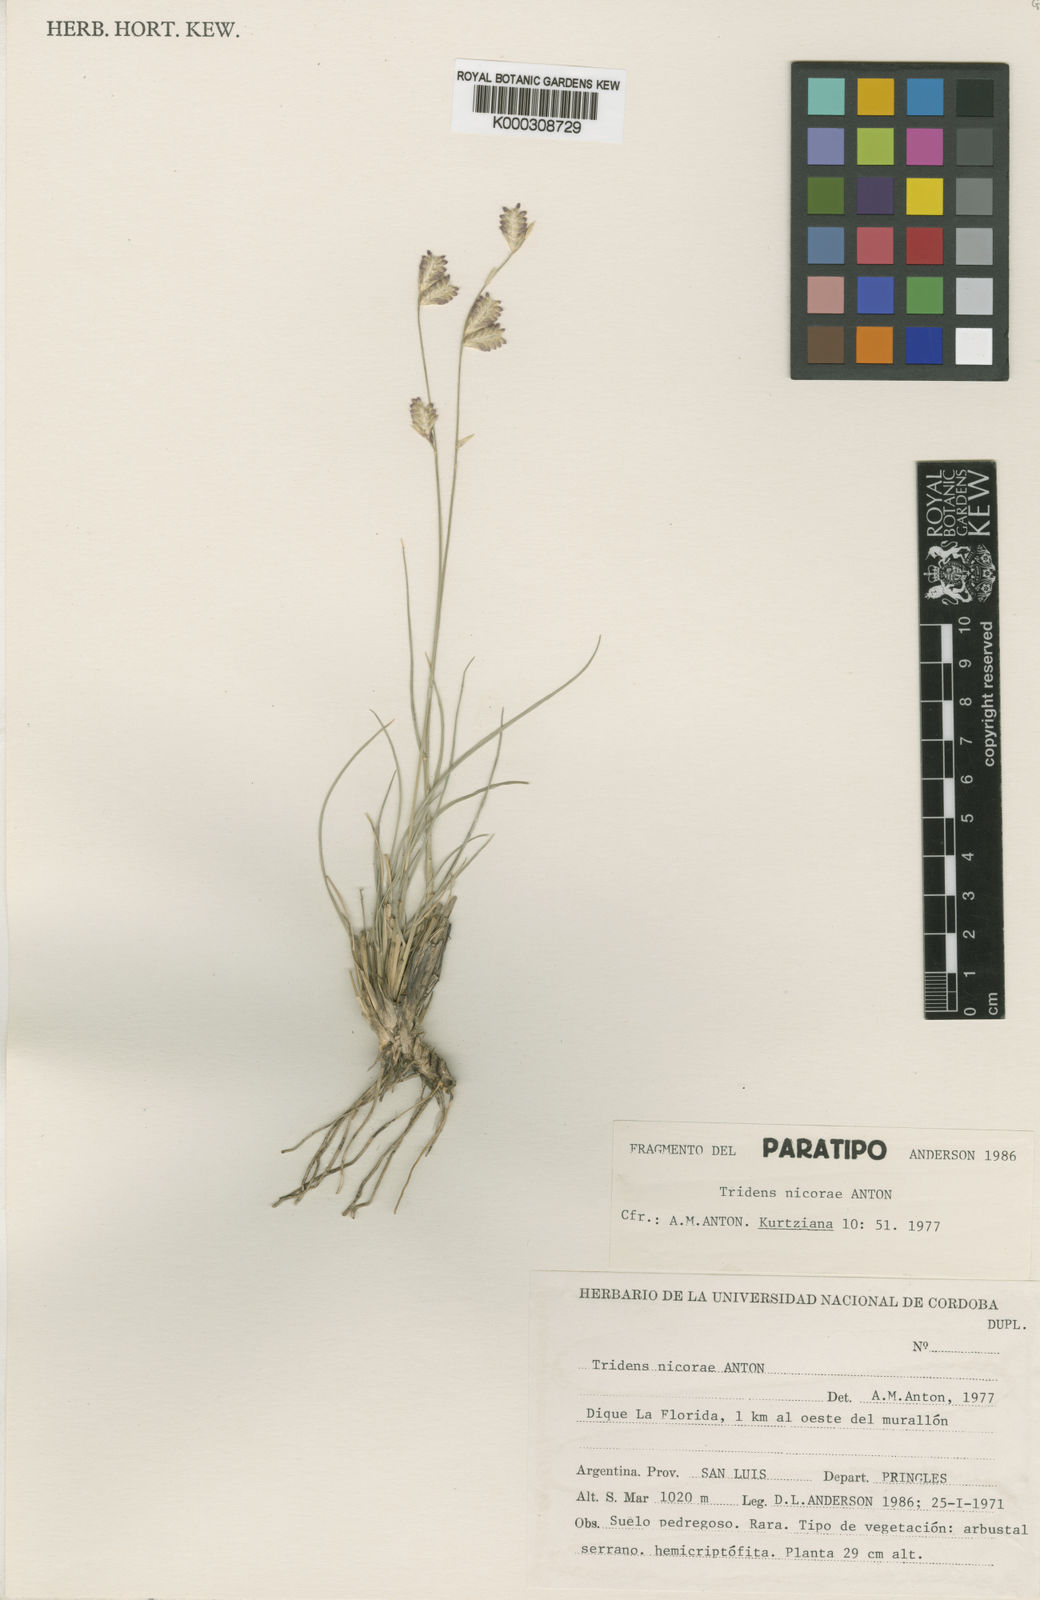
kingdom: Plantae
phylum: Tracheophyta
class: Liliopsida
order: Poales
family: Poaceae
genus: Tridens
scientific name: Tridens nicorae
